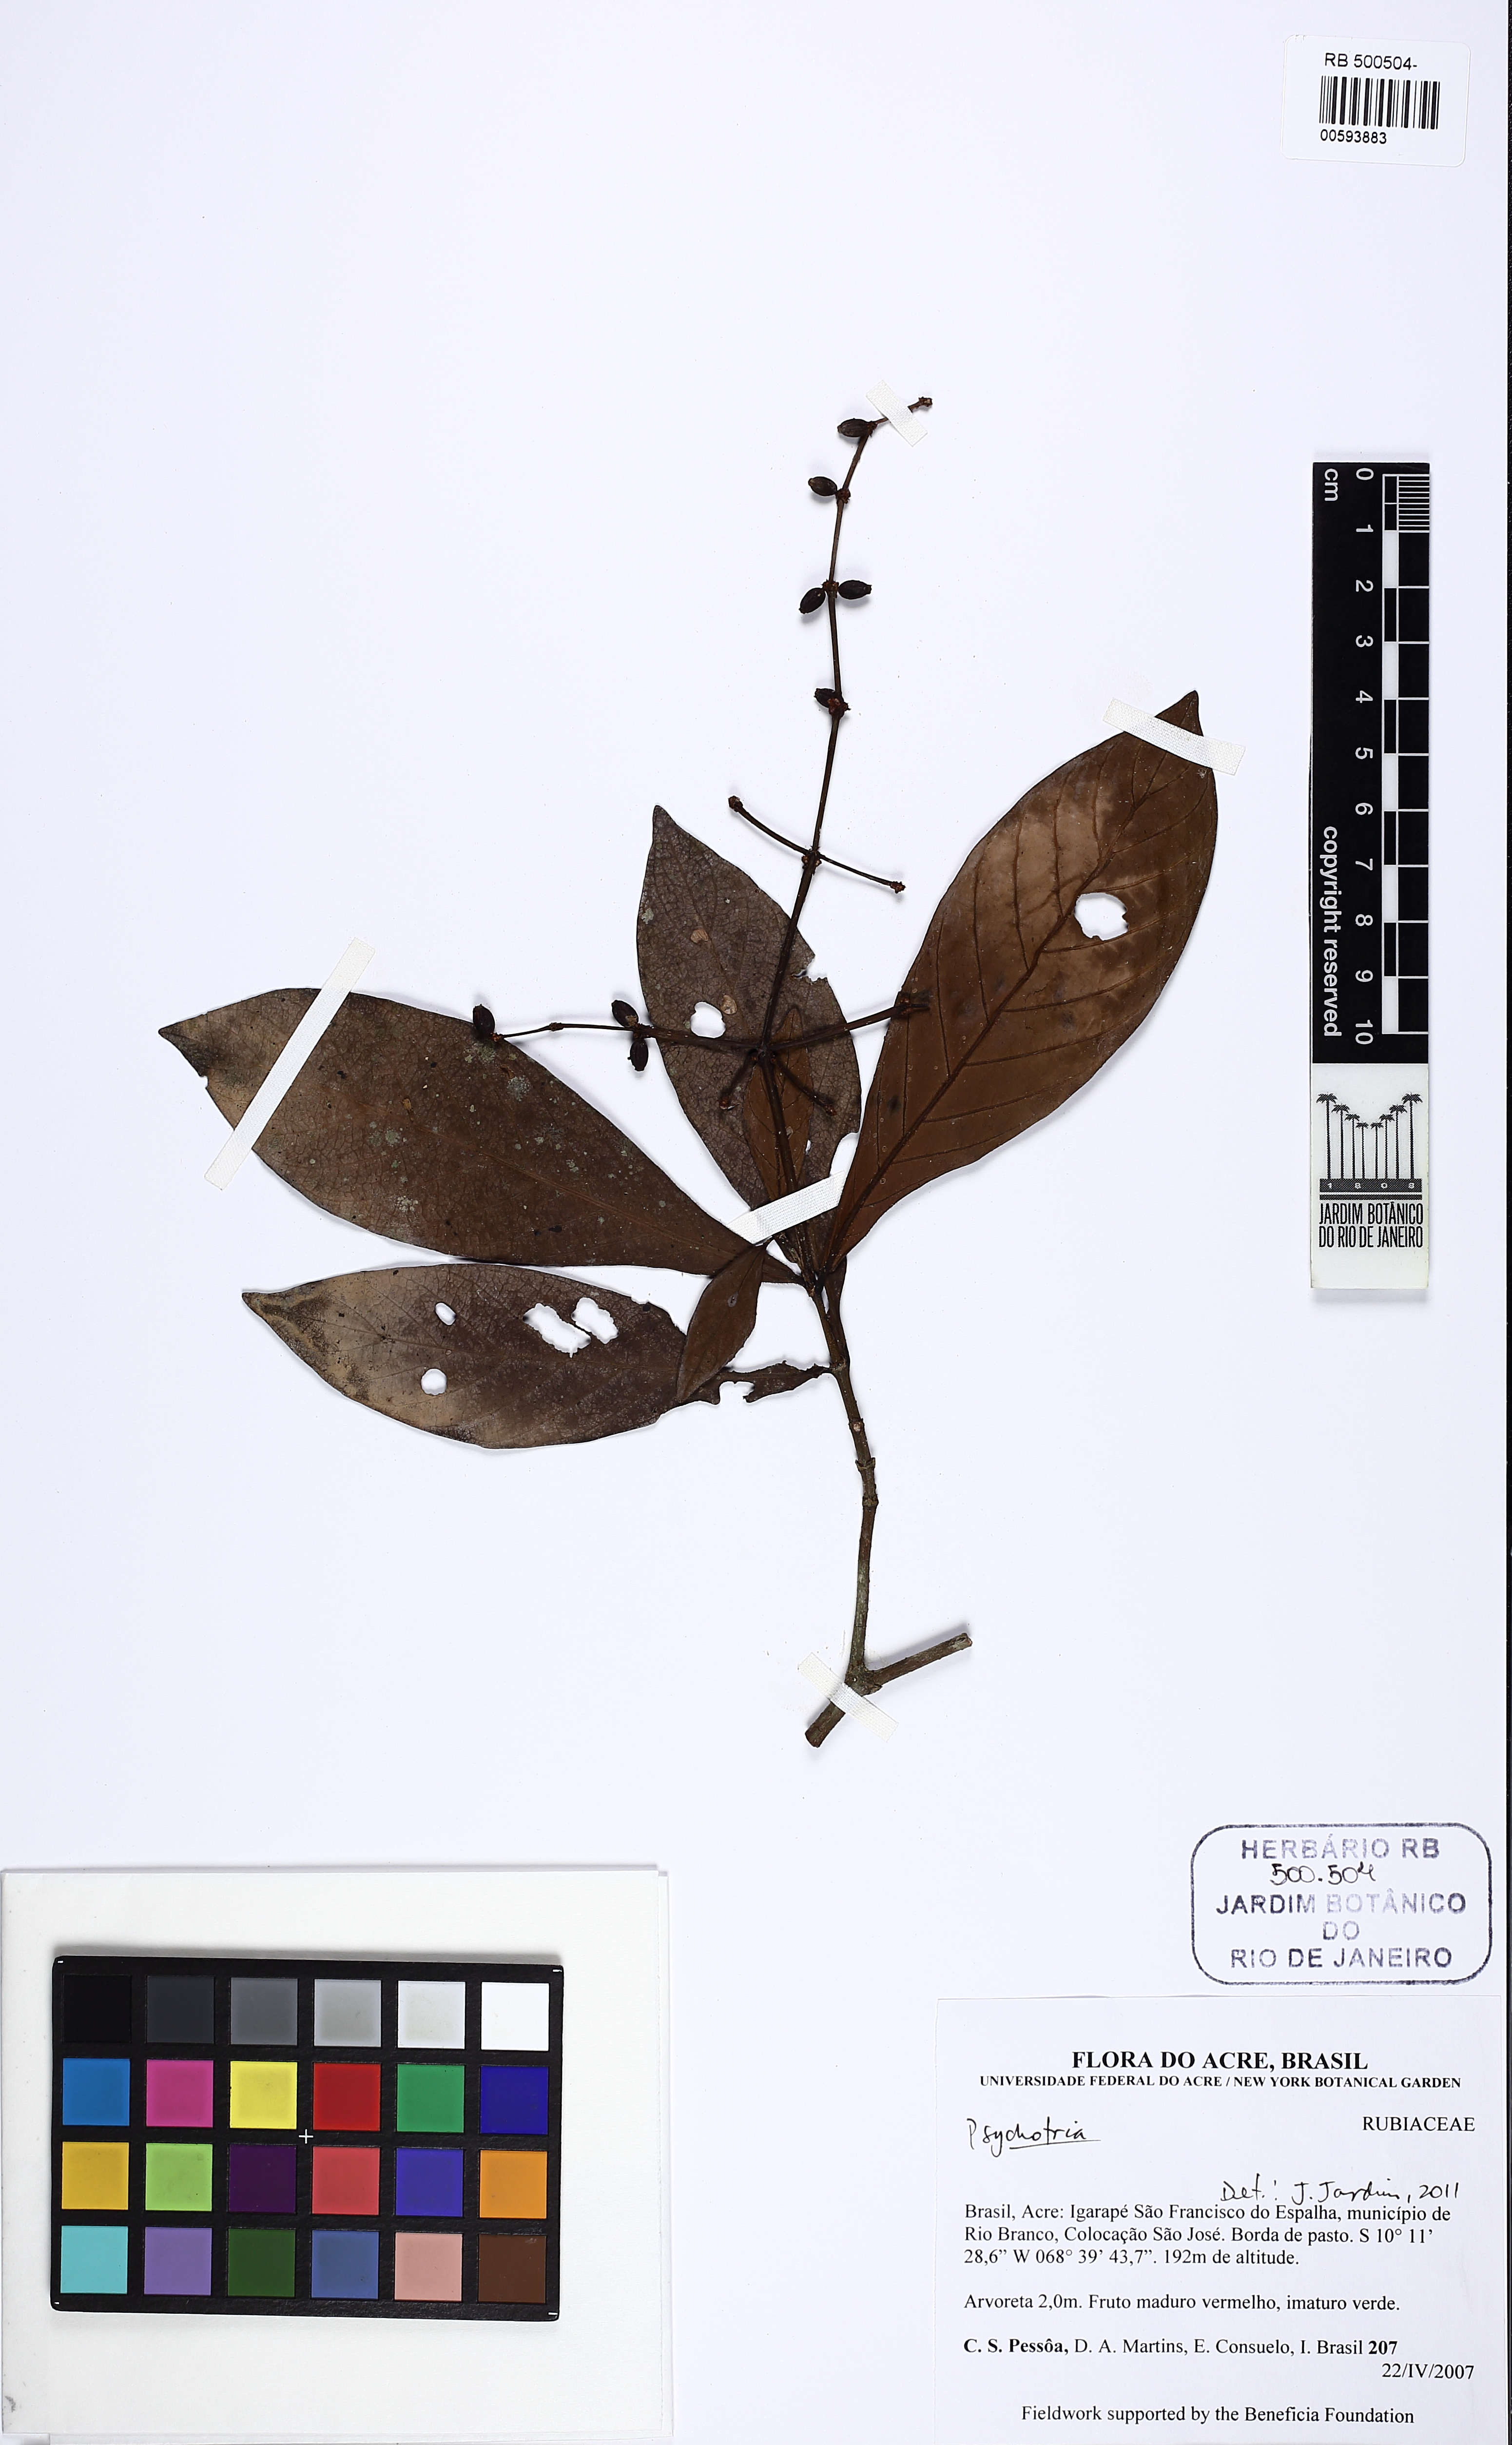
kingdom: Plantae
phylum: Tracheophyta
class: Magnoliopsida
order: Gentianales
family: Rubiaceae
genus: Psychotria
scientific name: Psychotria viridis
